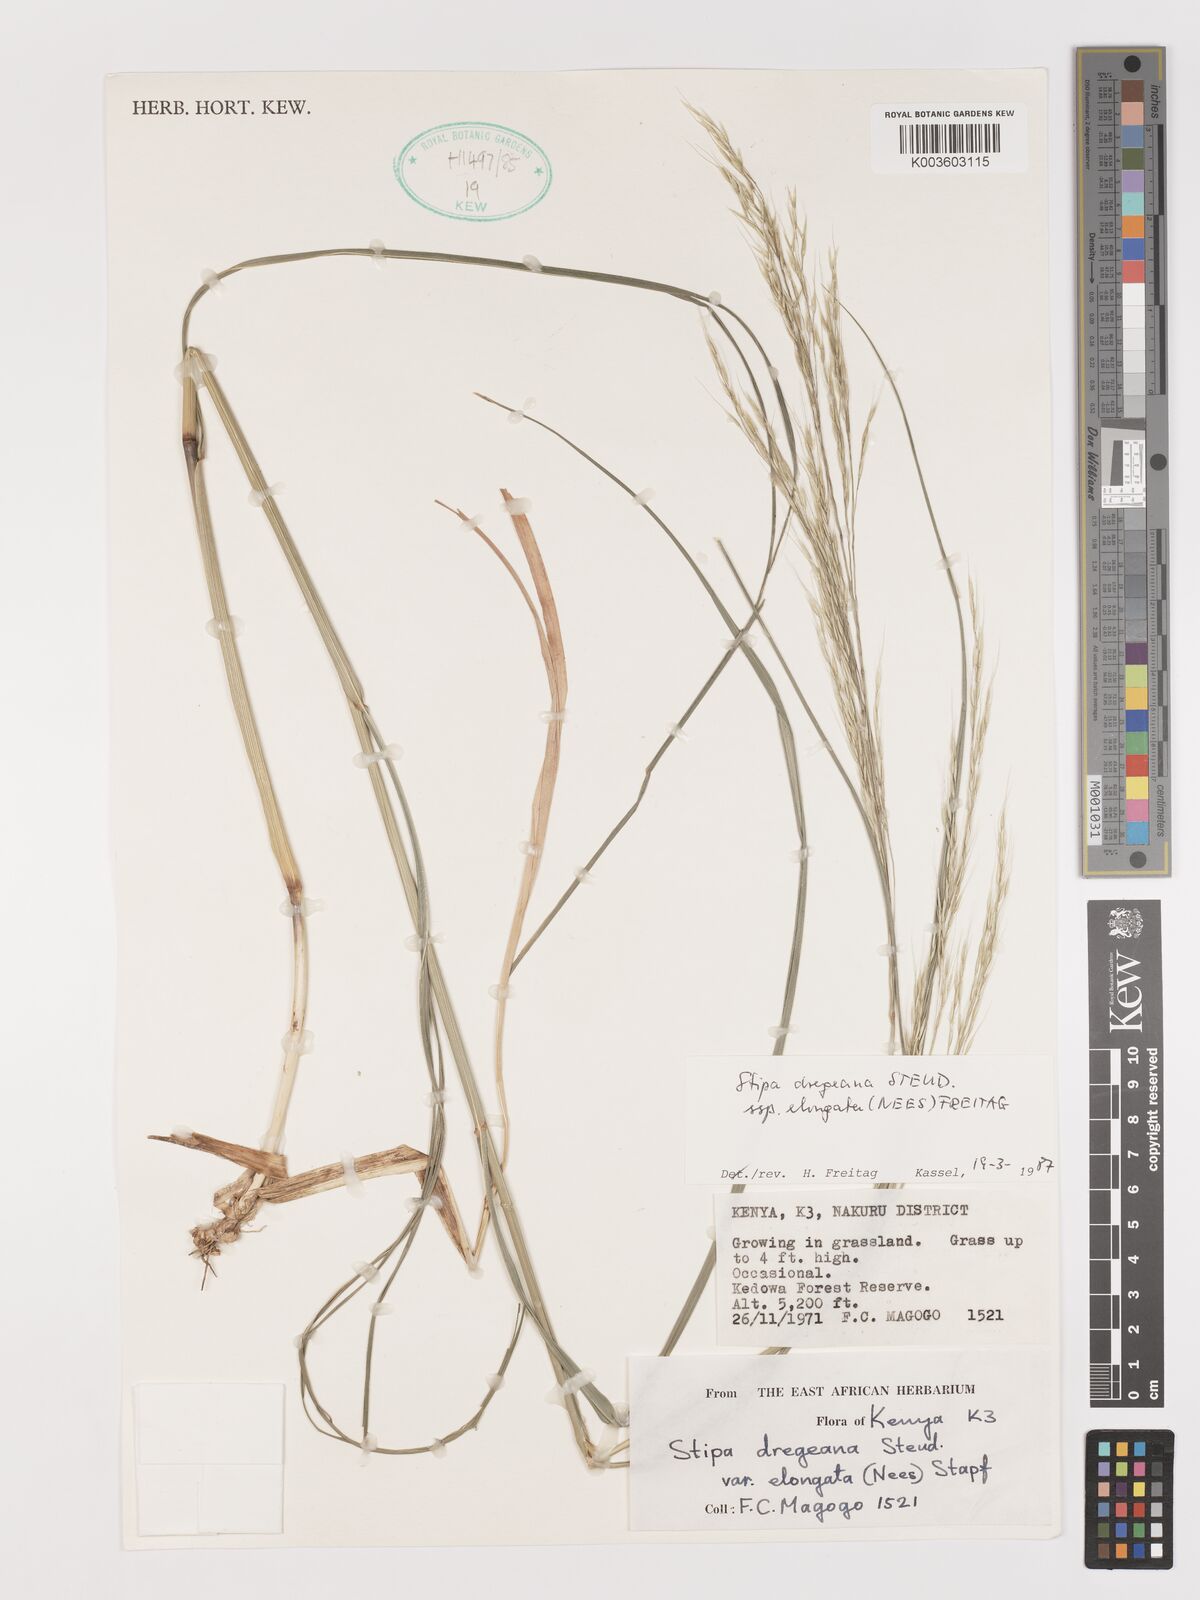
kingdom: Plantae
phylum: Tracheophyta
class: Liliopsida
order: Poales
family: Poaceae
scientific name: Poaceae
